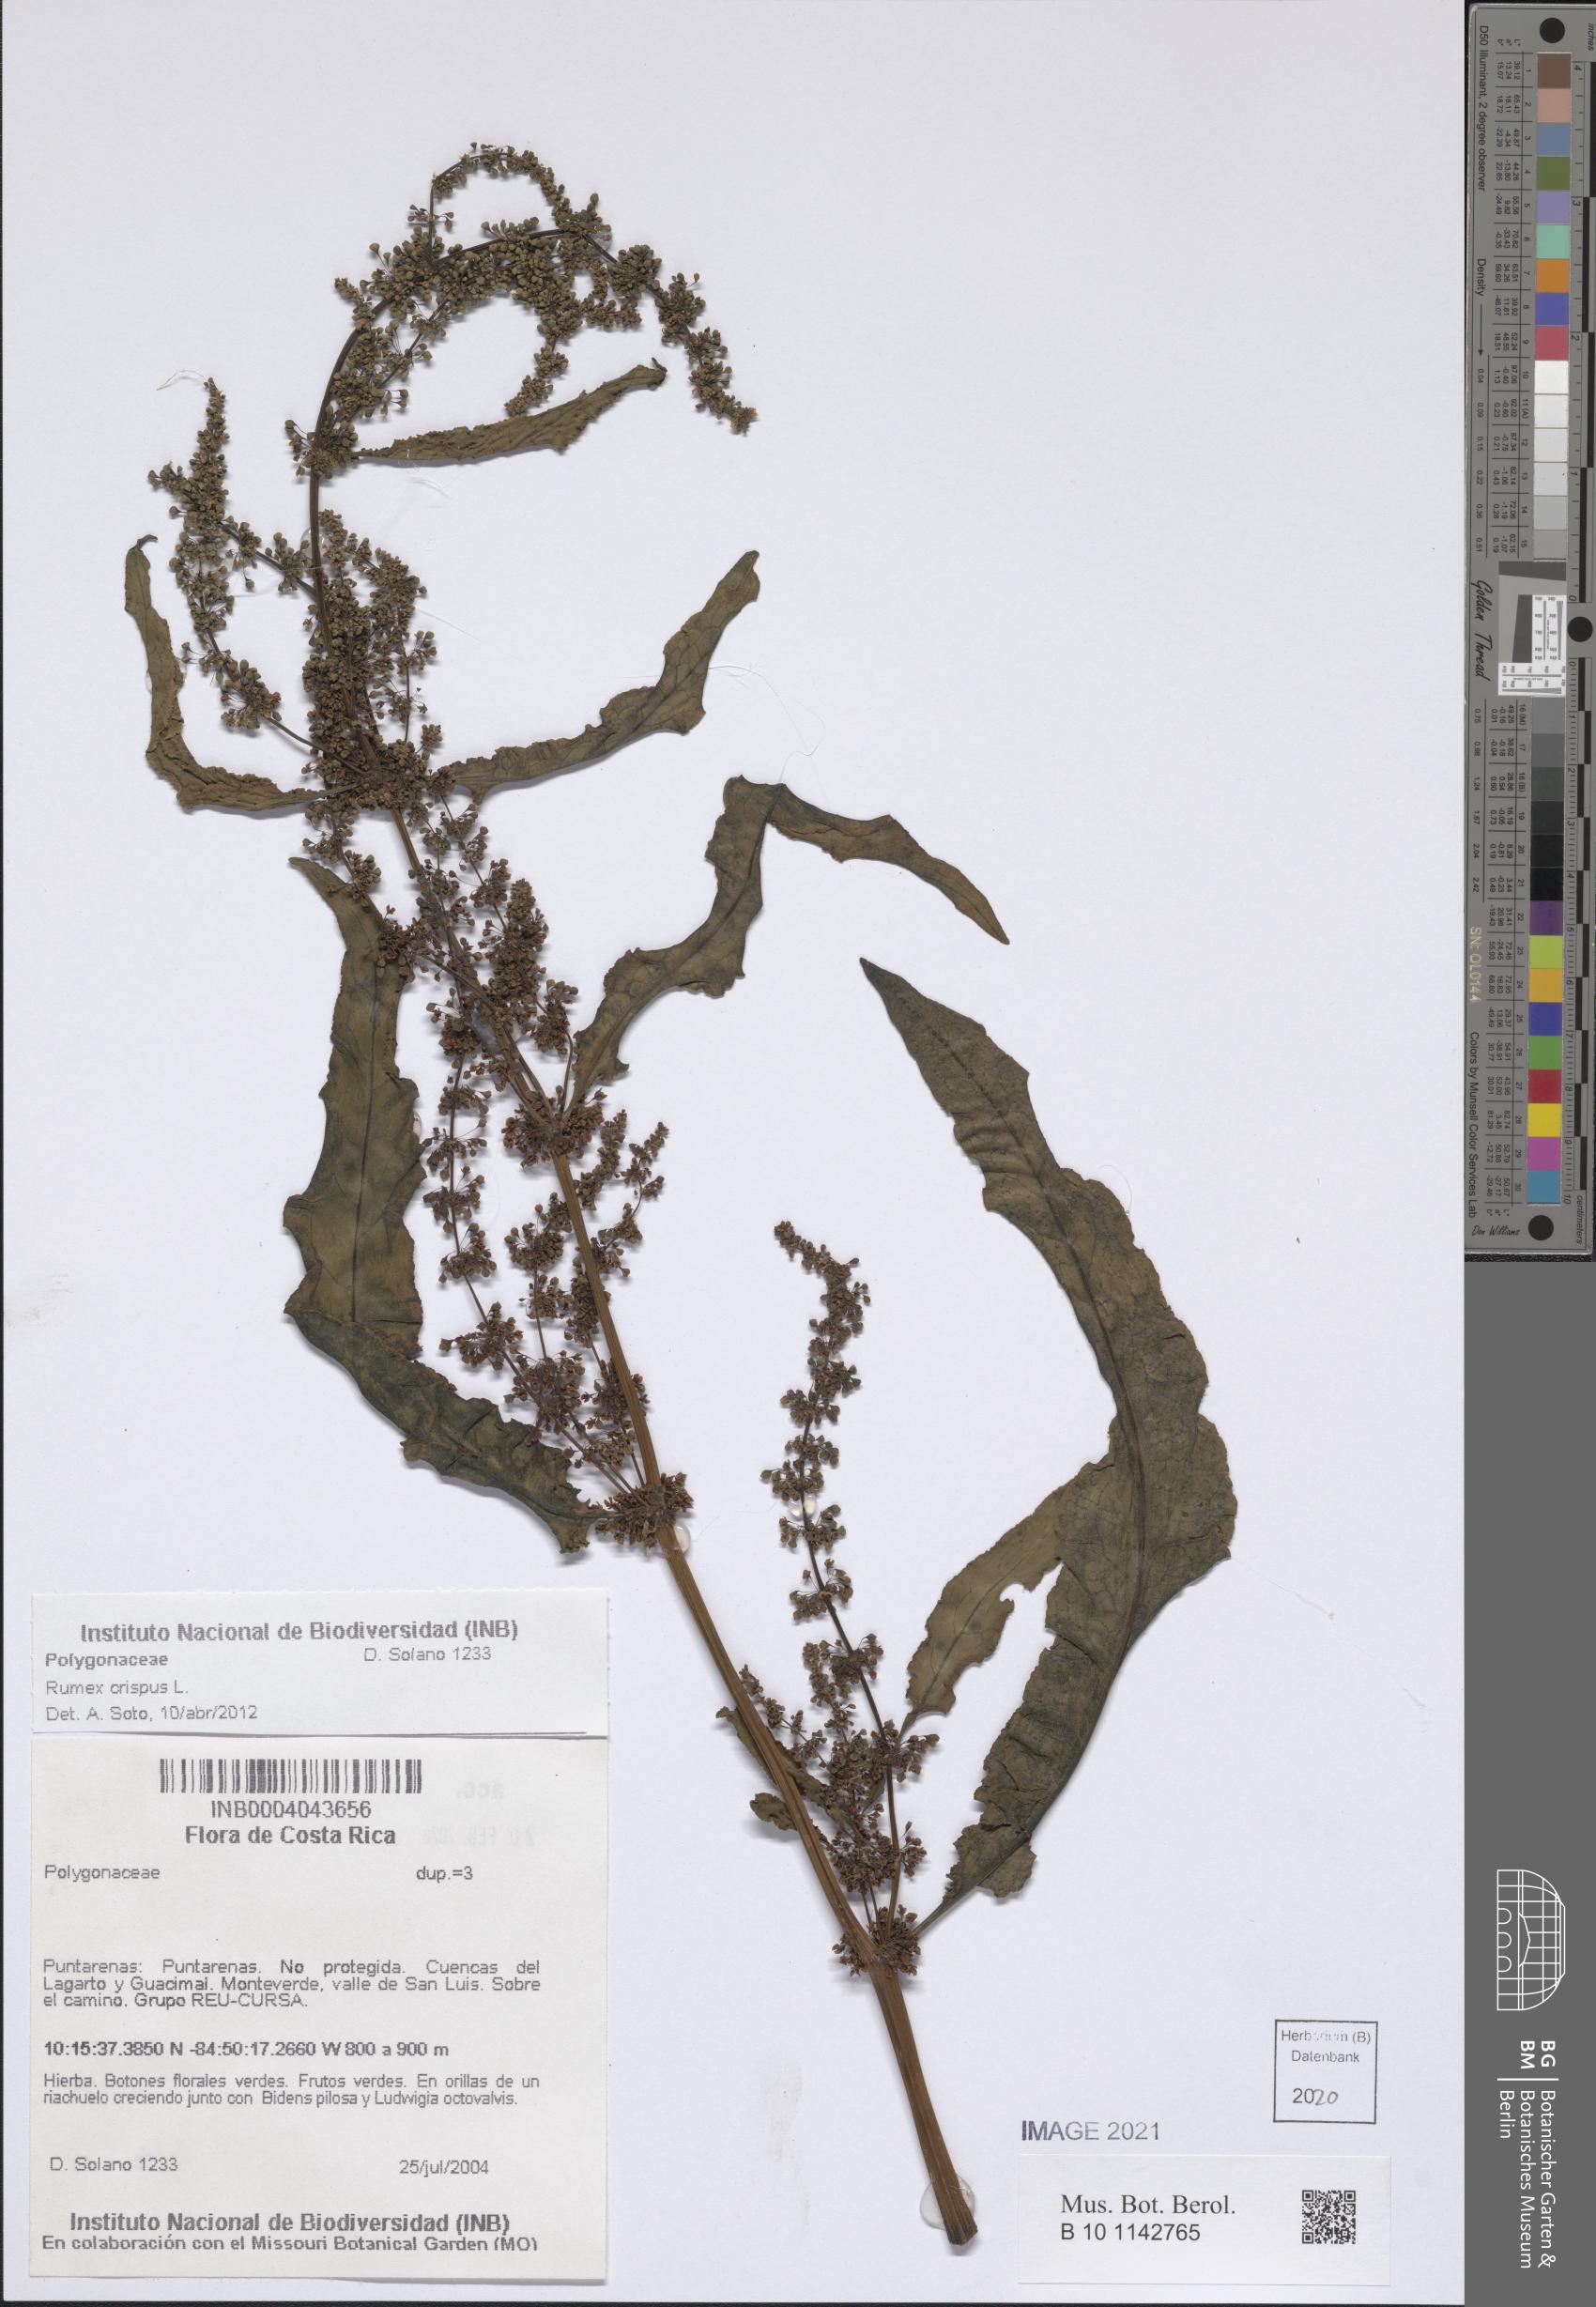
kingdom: Plantae
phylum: Tracheophyta
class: Magnoliopsida
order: Caryophyllales
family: Polygonaceae
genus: Rumex
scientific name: Rumex crispus
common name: Curled dock
